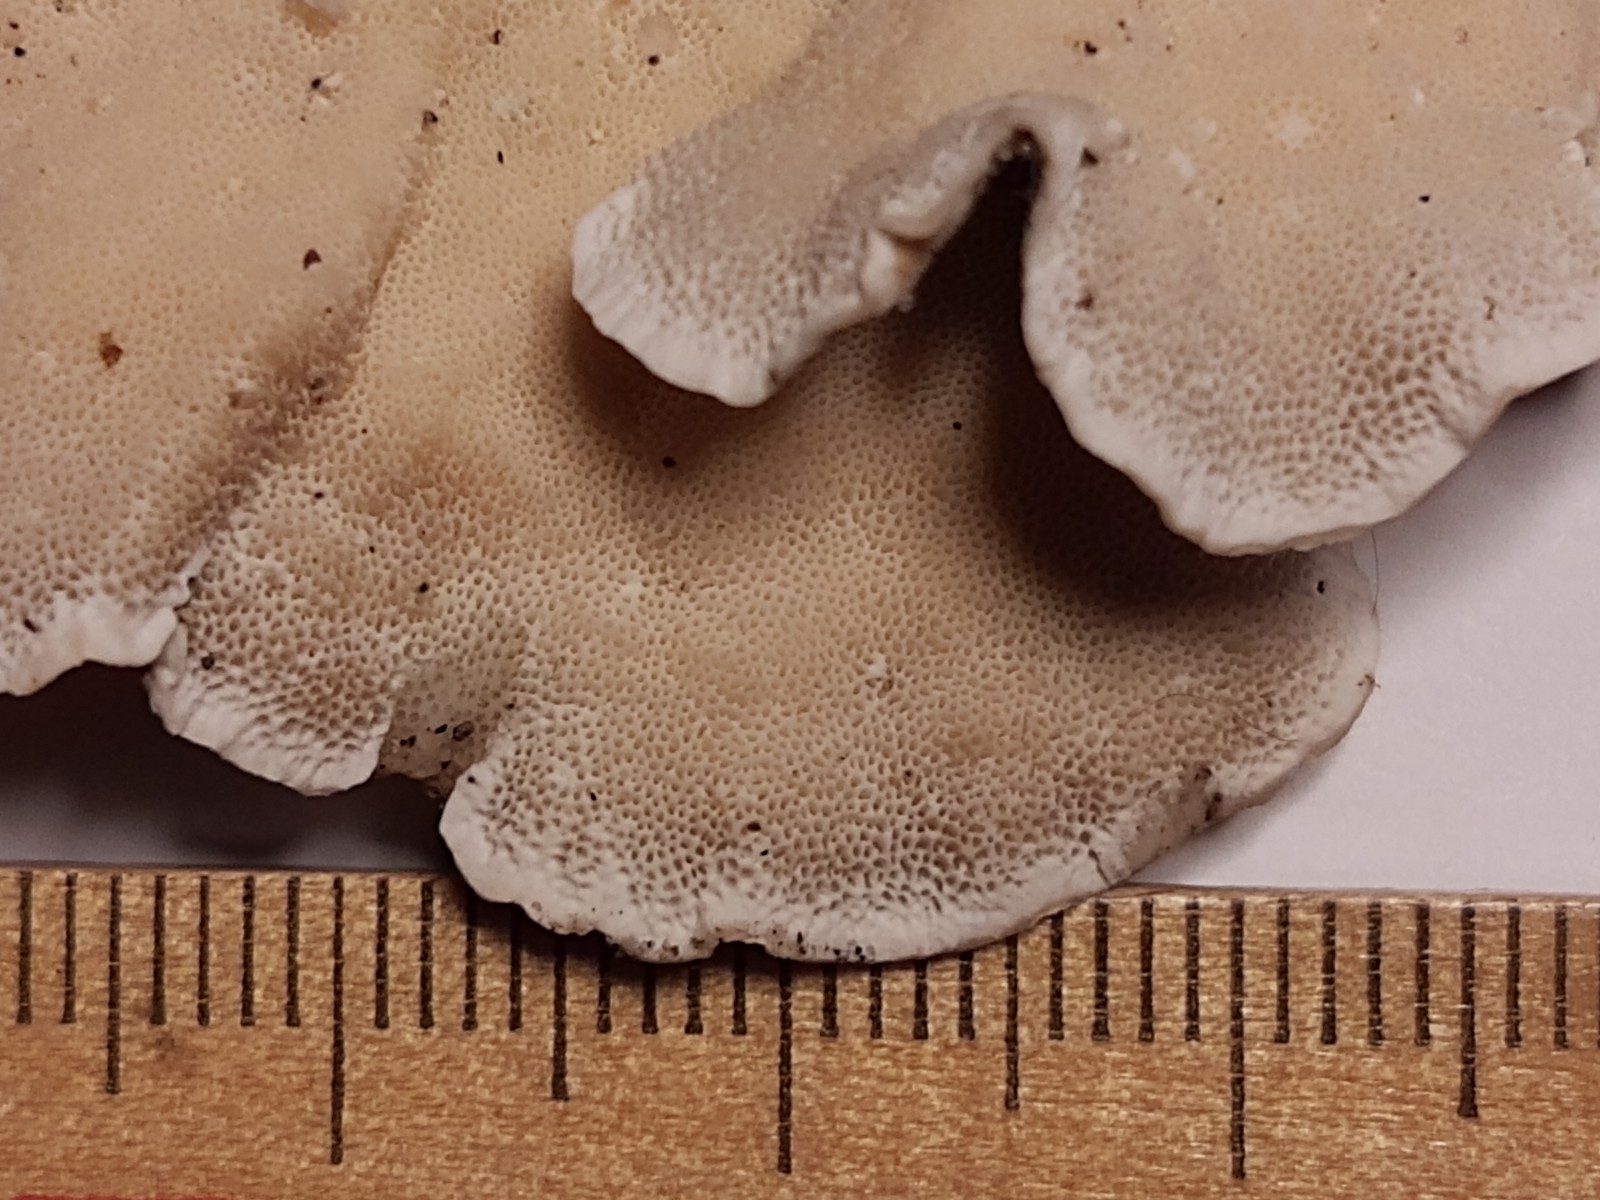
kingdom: Fungi
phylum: Basidiomycota
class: Agaricomycetes
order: Polyporales
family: Polyporaceae
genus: Trametes
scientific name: Trametes versicolor
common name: broget læderporesvamp
